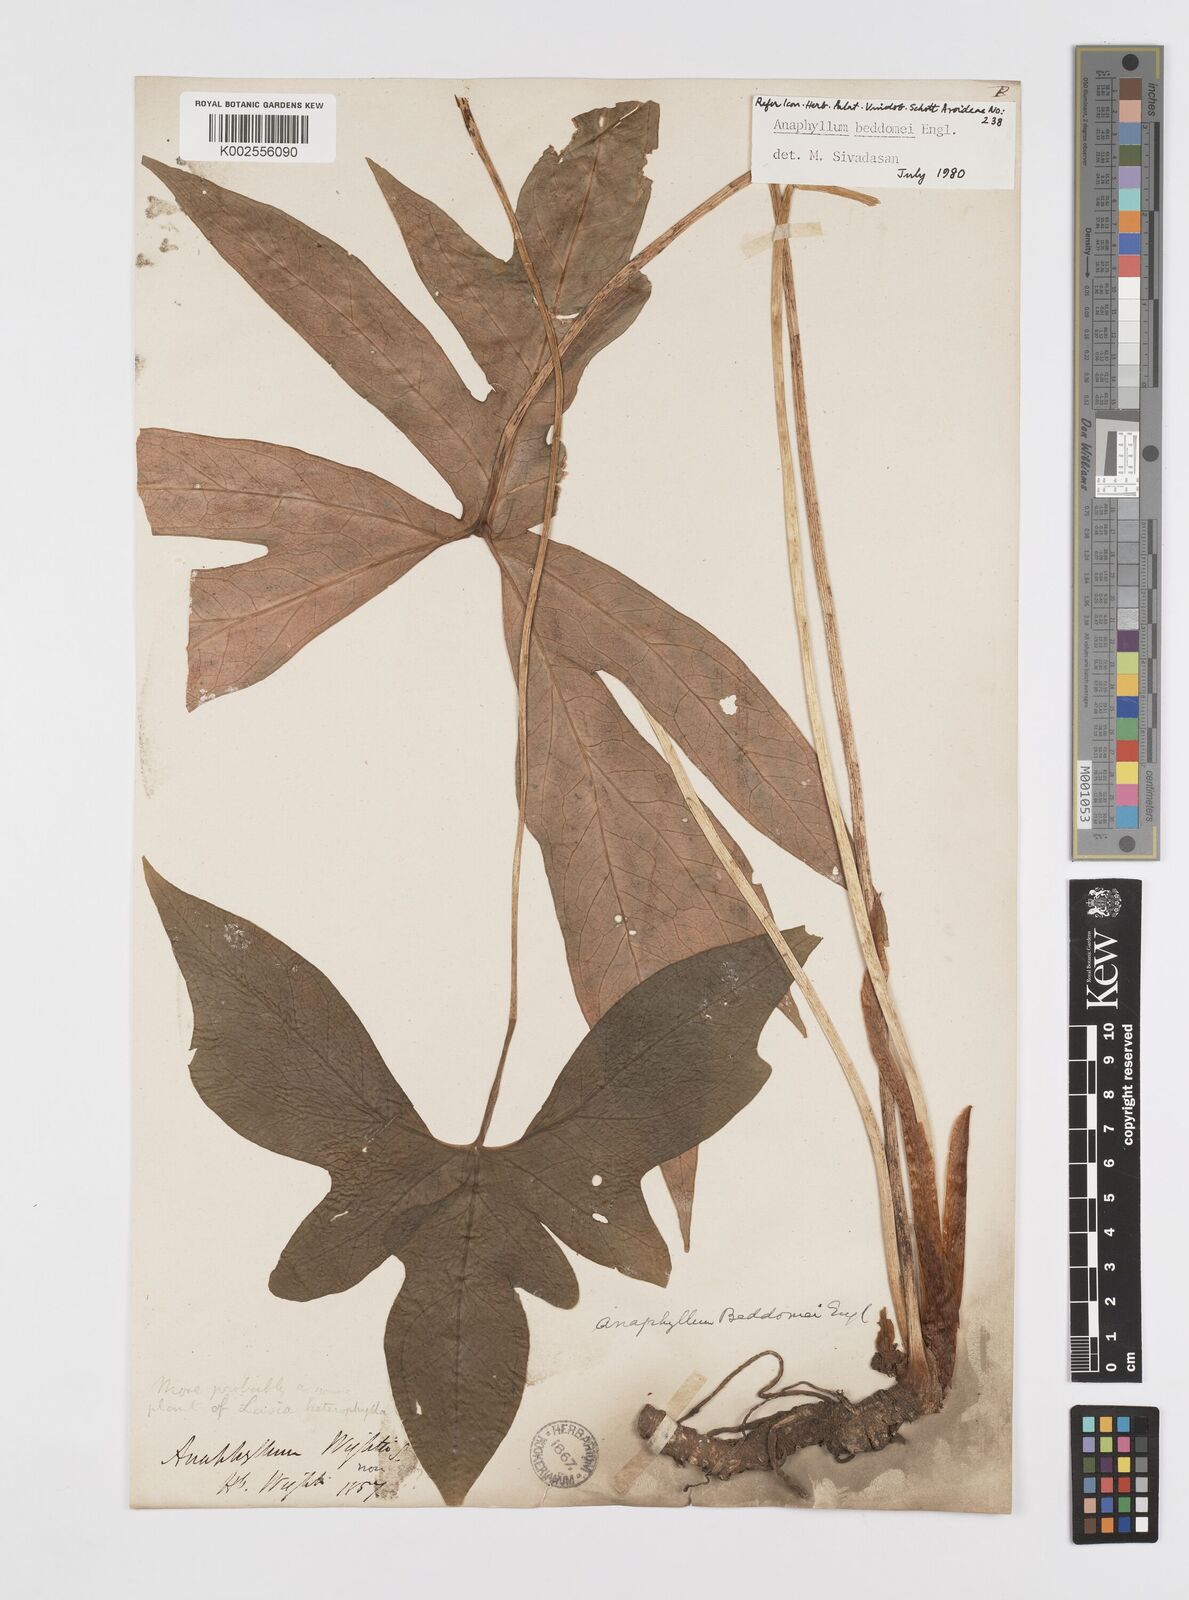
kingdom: Plantae
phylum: Tracheophyta
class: Liliopsida
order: Alismatales
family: Araceae
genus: Anaphyllum
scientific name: Anaphyllum beddomei
